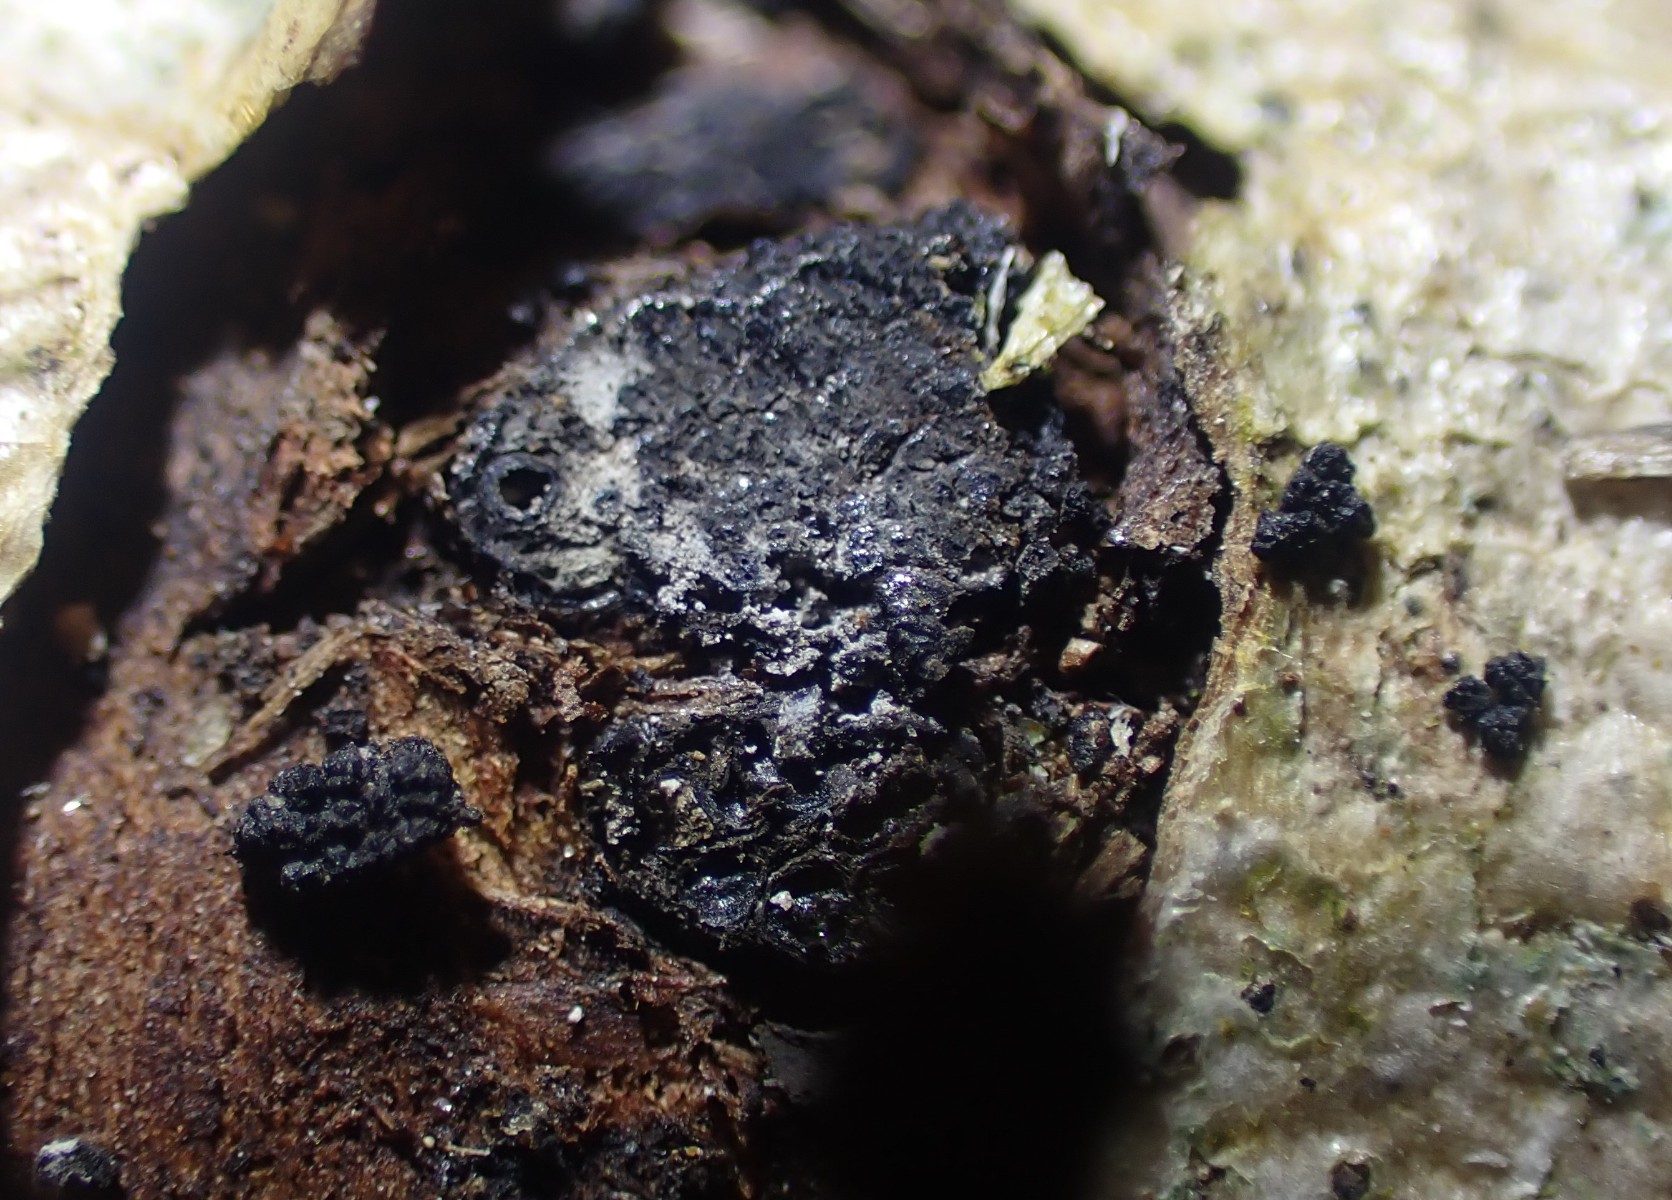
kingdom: Fungi
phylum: Ascomycota
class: Sordariomycetes
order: Xylariales
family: Diatrypaceae
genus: Eutypella
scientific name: Eutypella sorbi
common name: rønne-kulskorpe
